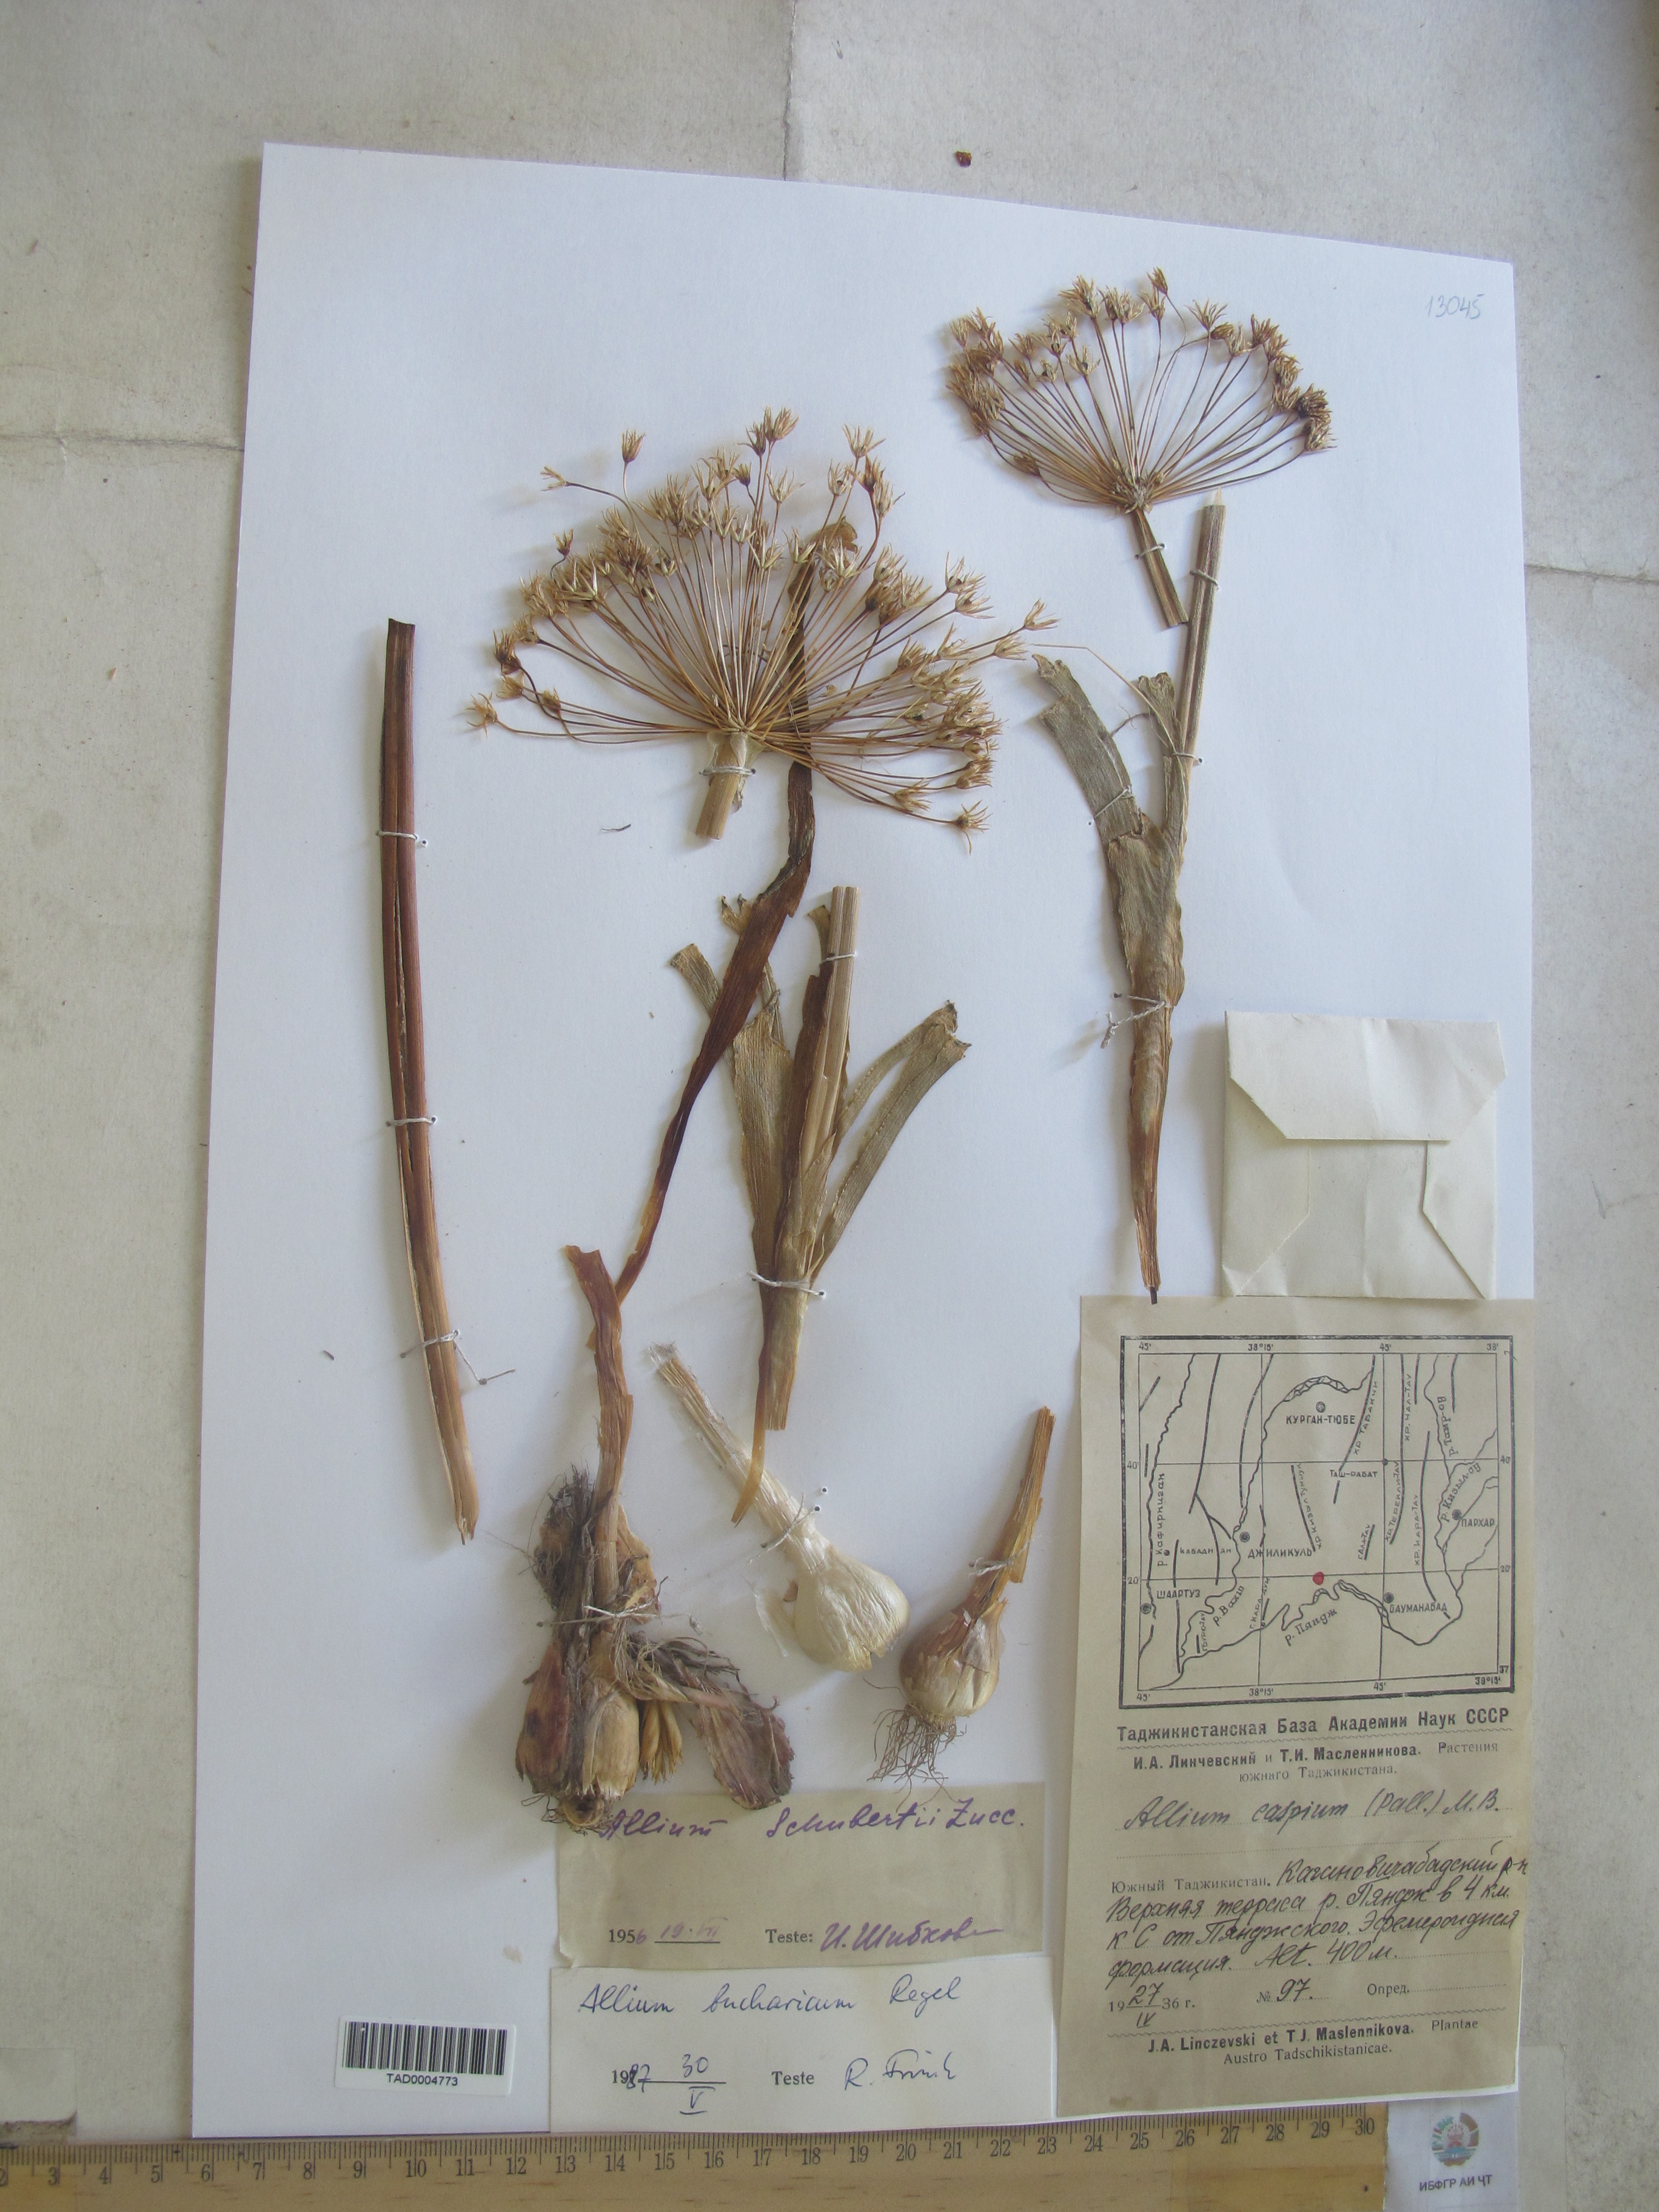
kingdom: Plantae
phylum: Tracheophyta
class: Liliopsida
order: Asparagales
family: Amaryllidaceae
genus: Allium
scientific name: Allium bucharicum
